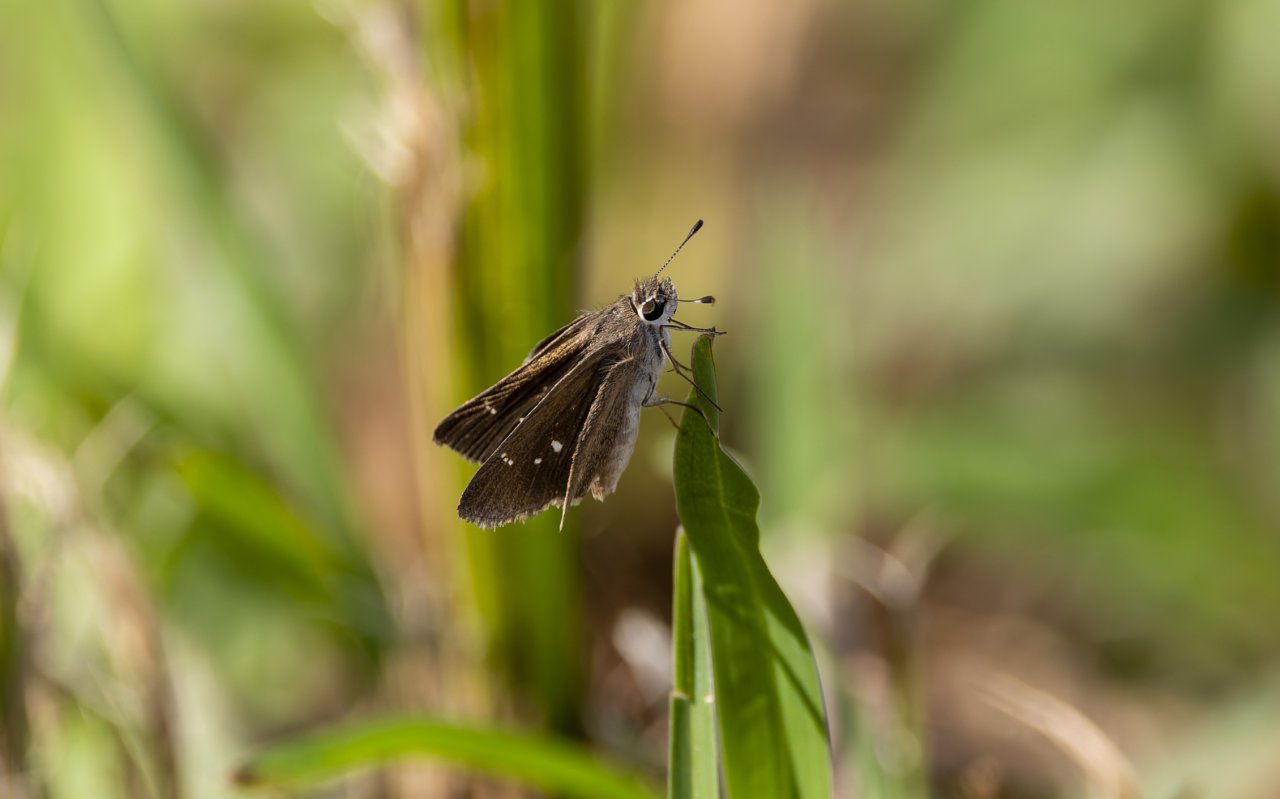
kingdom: Animalia
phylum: Arthropoda
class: Insecta
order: Lepidoptera
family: Hesperiidae
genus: Lerema
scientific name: Lerema accius
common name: Clouded Skipper
